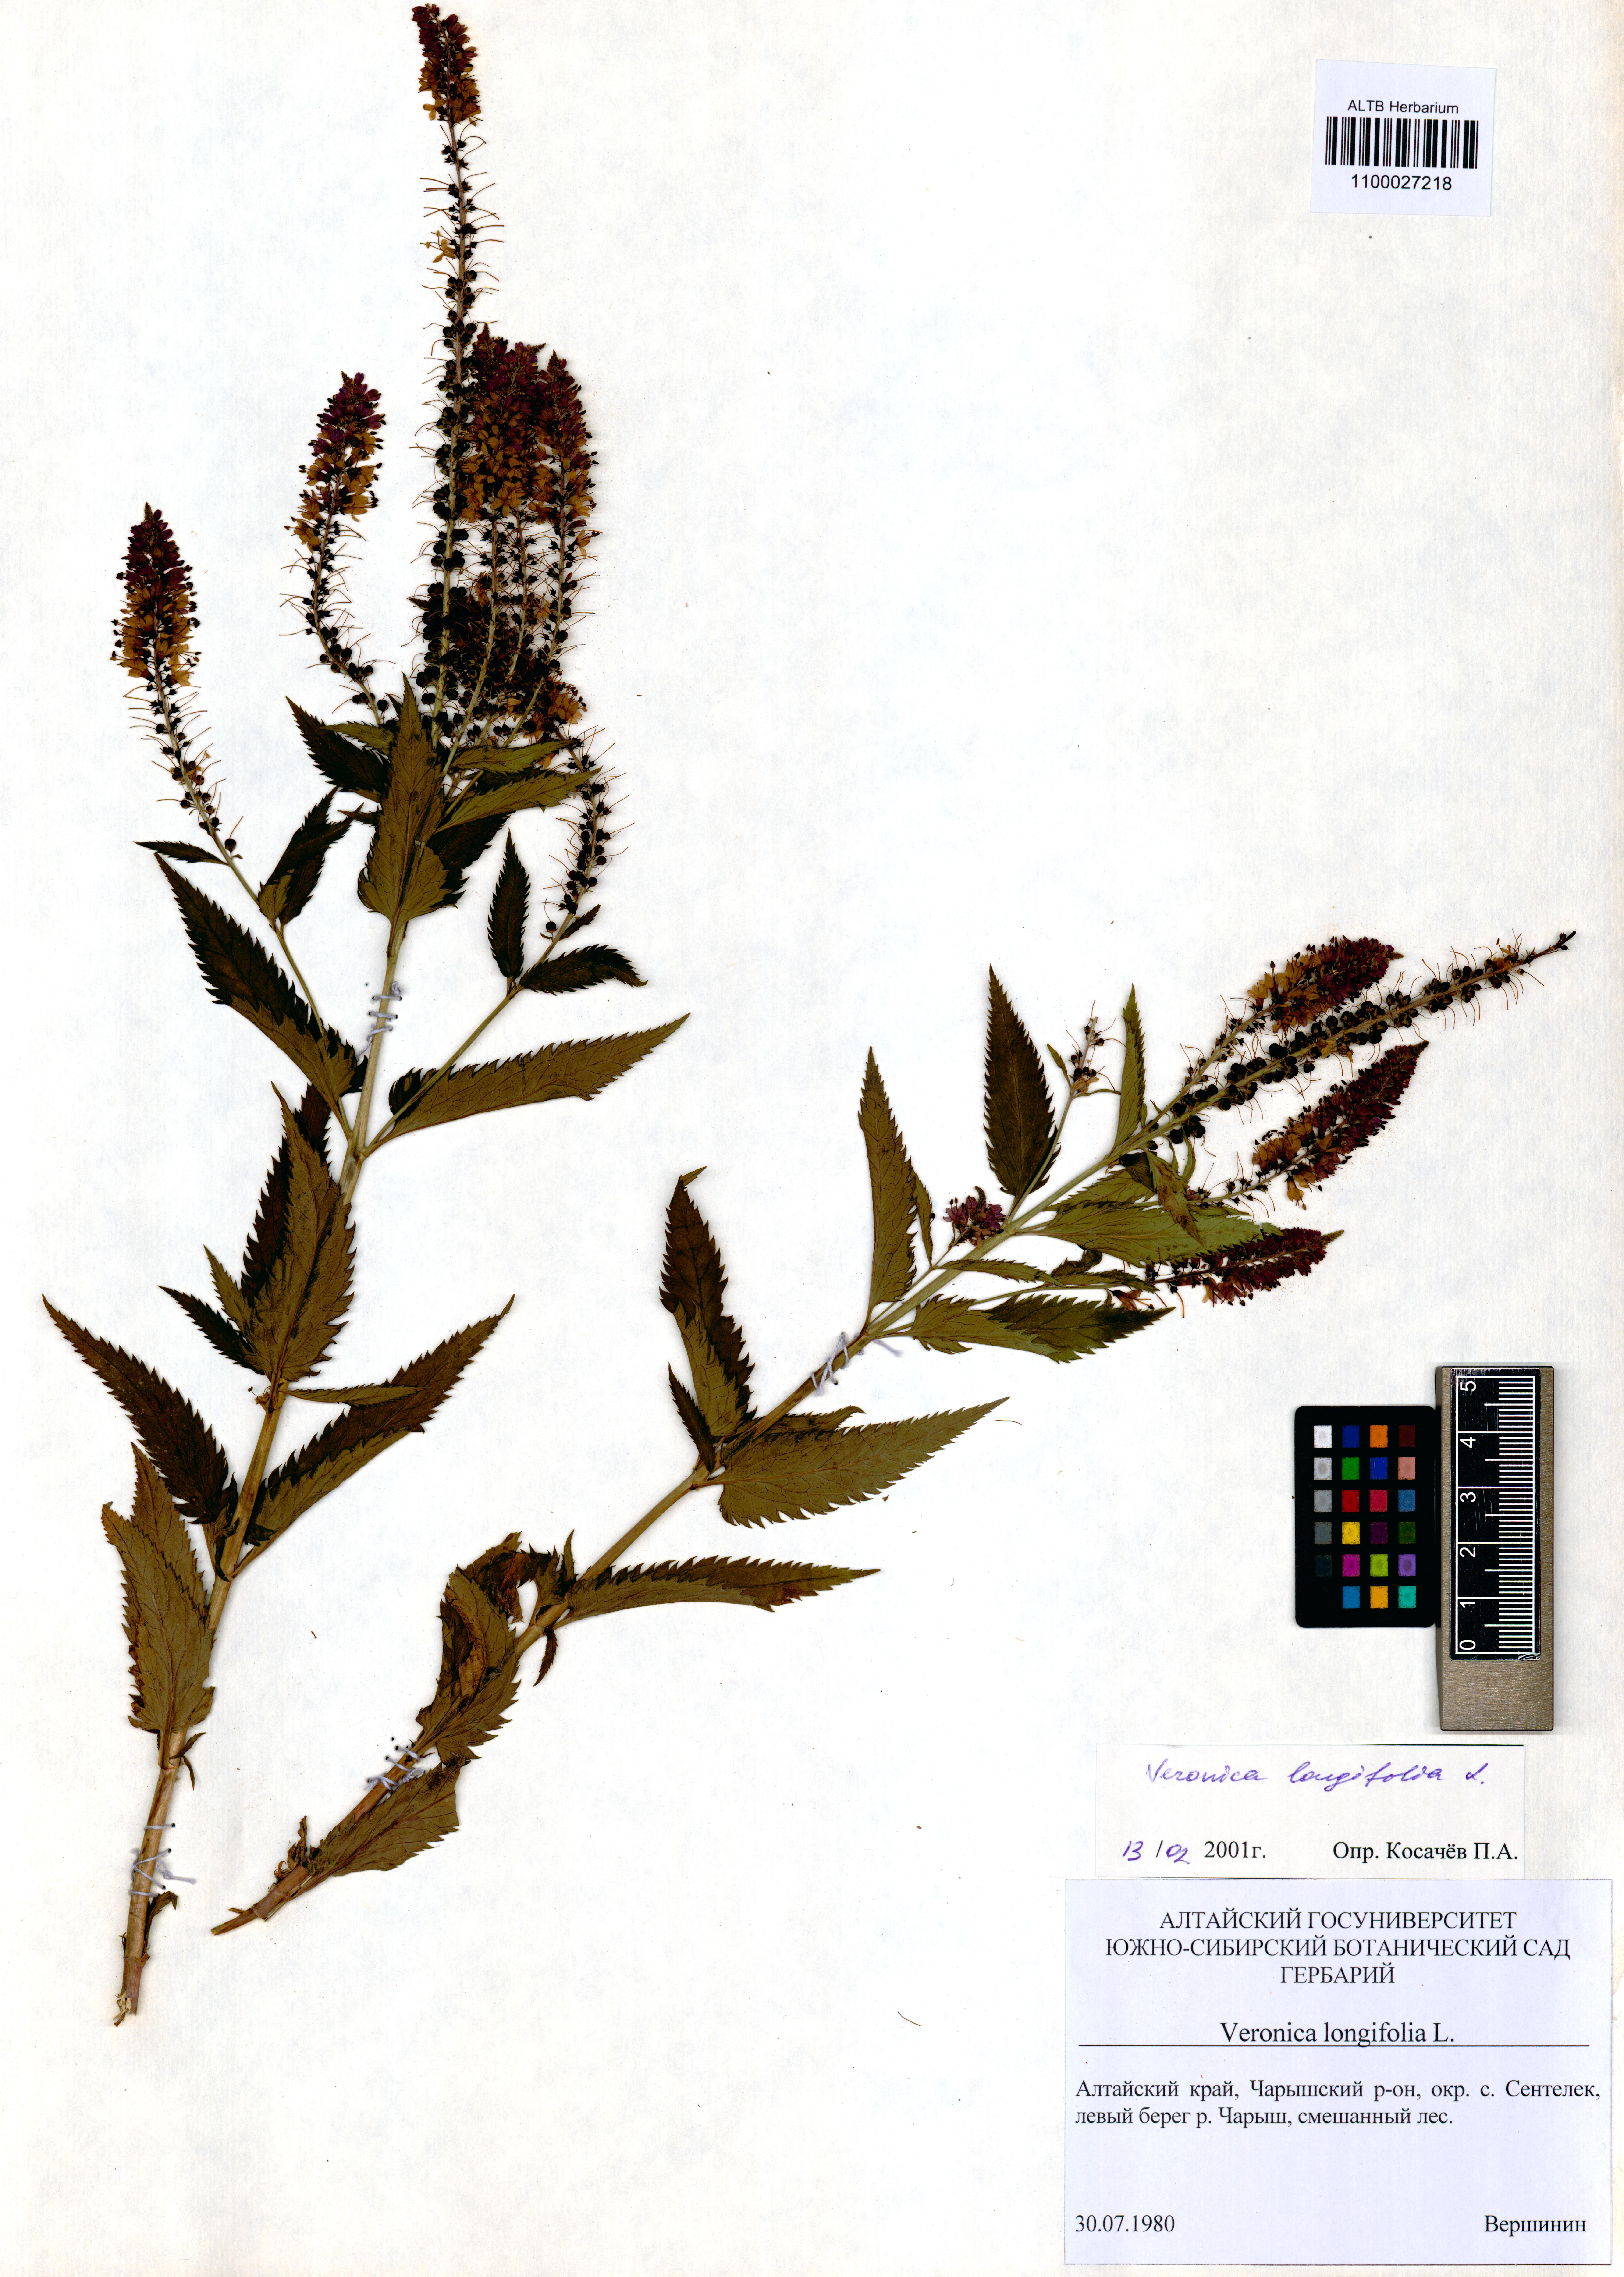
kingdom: Plantae
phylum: Tracheophyta
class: Magnoliopsida
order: Lamiales
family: Plantaginaceae
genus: Veronica
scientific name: Veronica longifolia
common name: Garden speedwell
